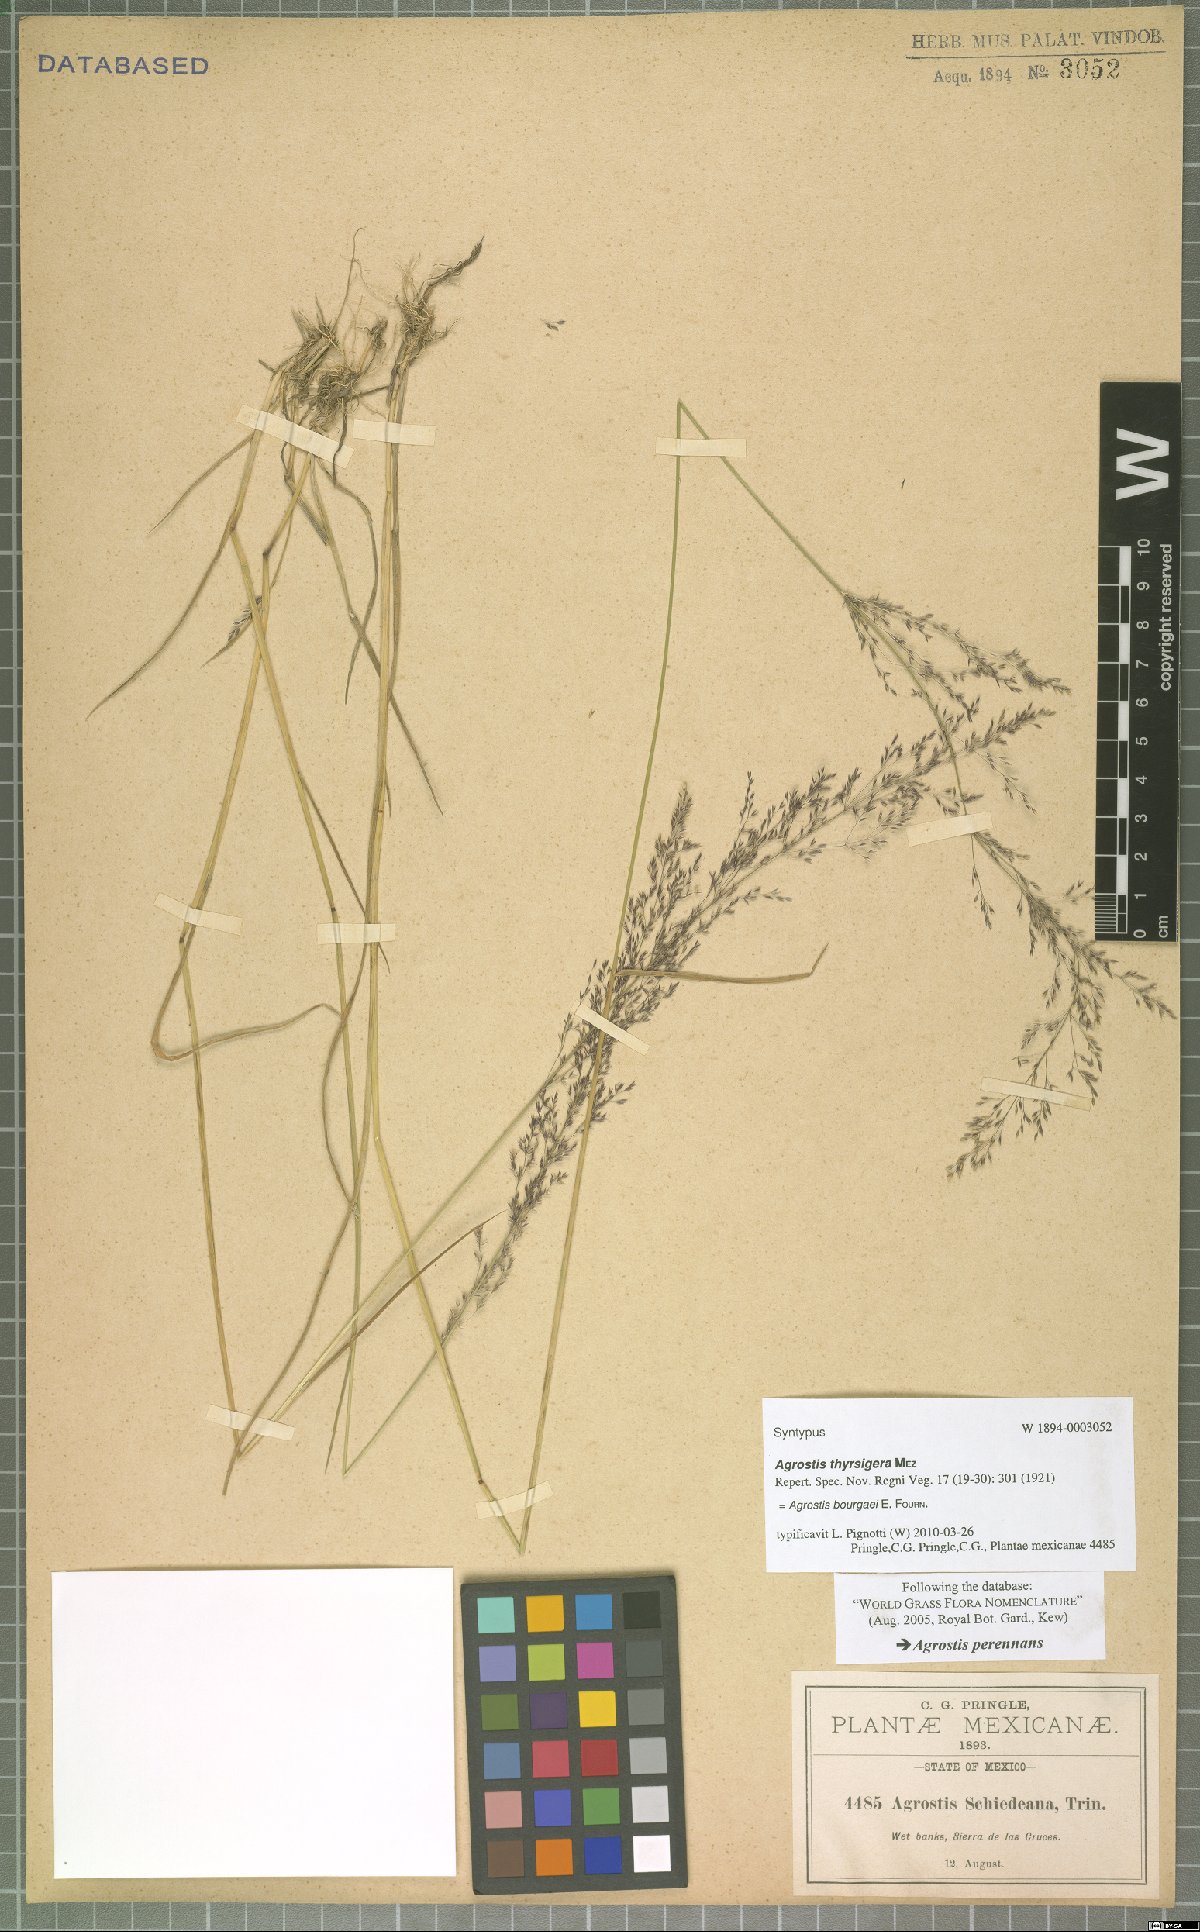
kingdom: Plantae
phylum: Tracheophyta
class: Liliopsida
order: Poales
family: Poaceae
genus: Agrostis
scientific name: Agrostis bourgaei
